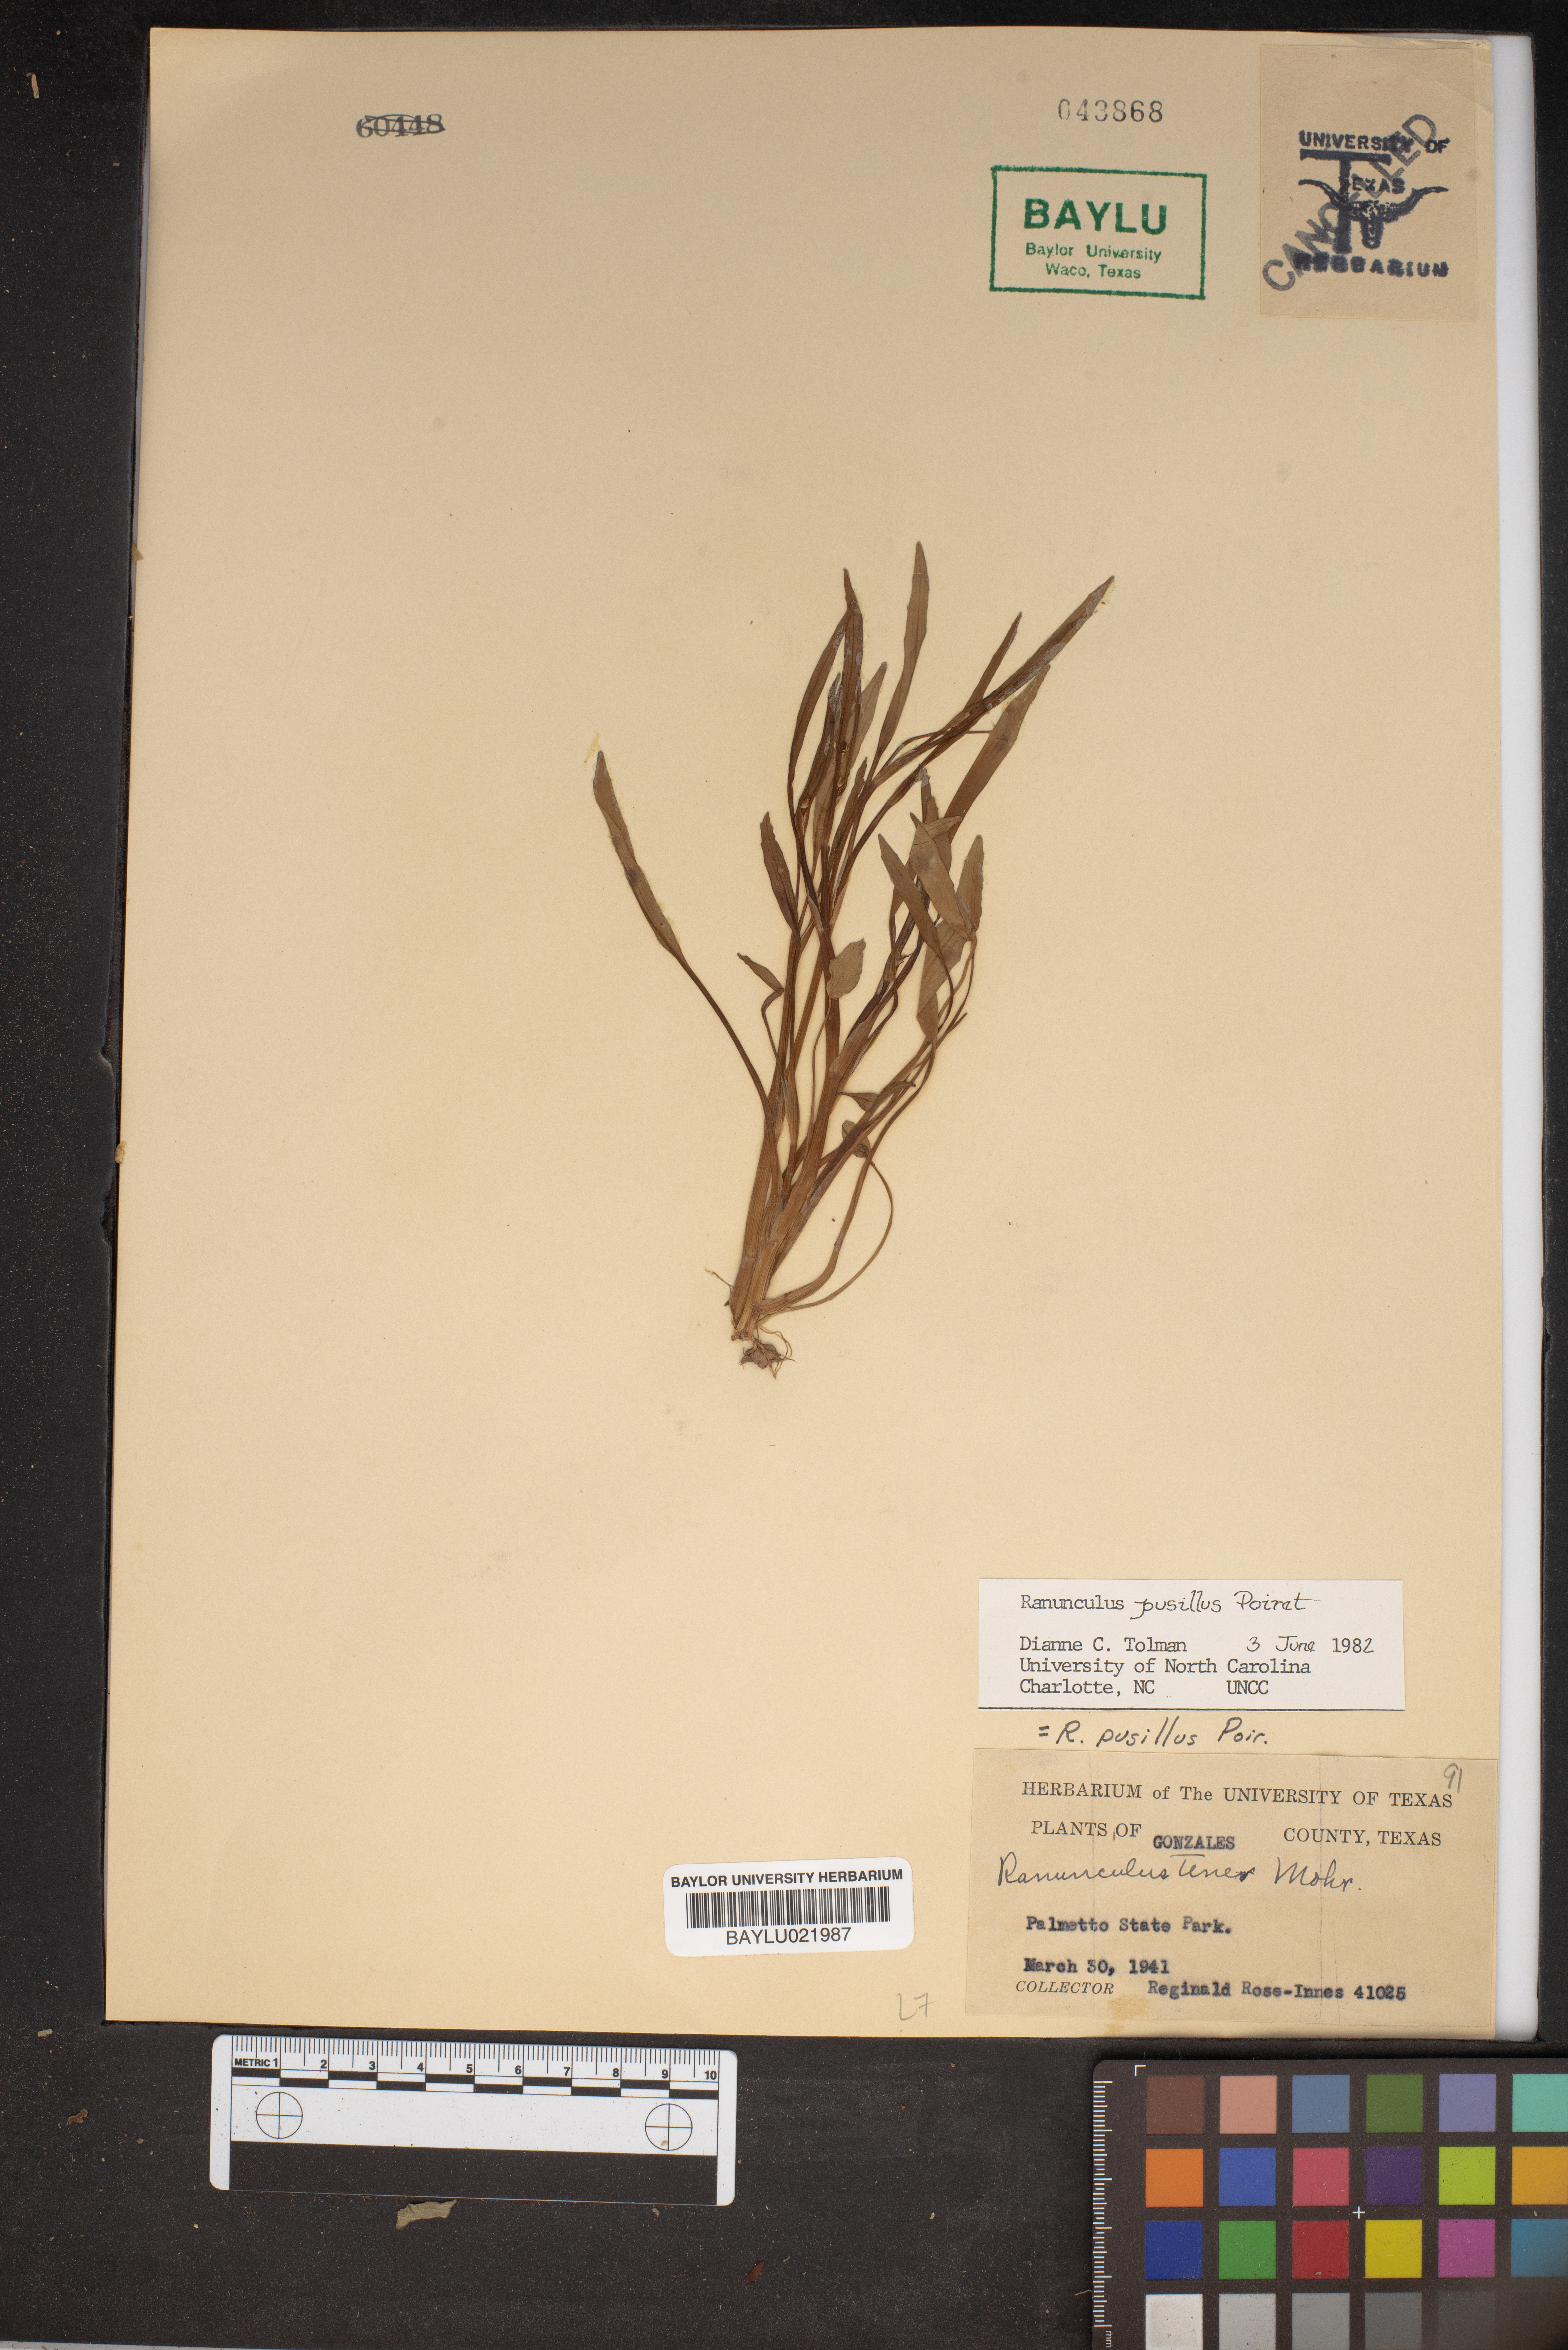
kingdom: Plantae
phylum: Tracheophyta
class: Magnoliopsida
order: Ranunculales
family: Ranunculaceae
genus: Ranunculus
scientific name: Ranunculus pusillus
